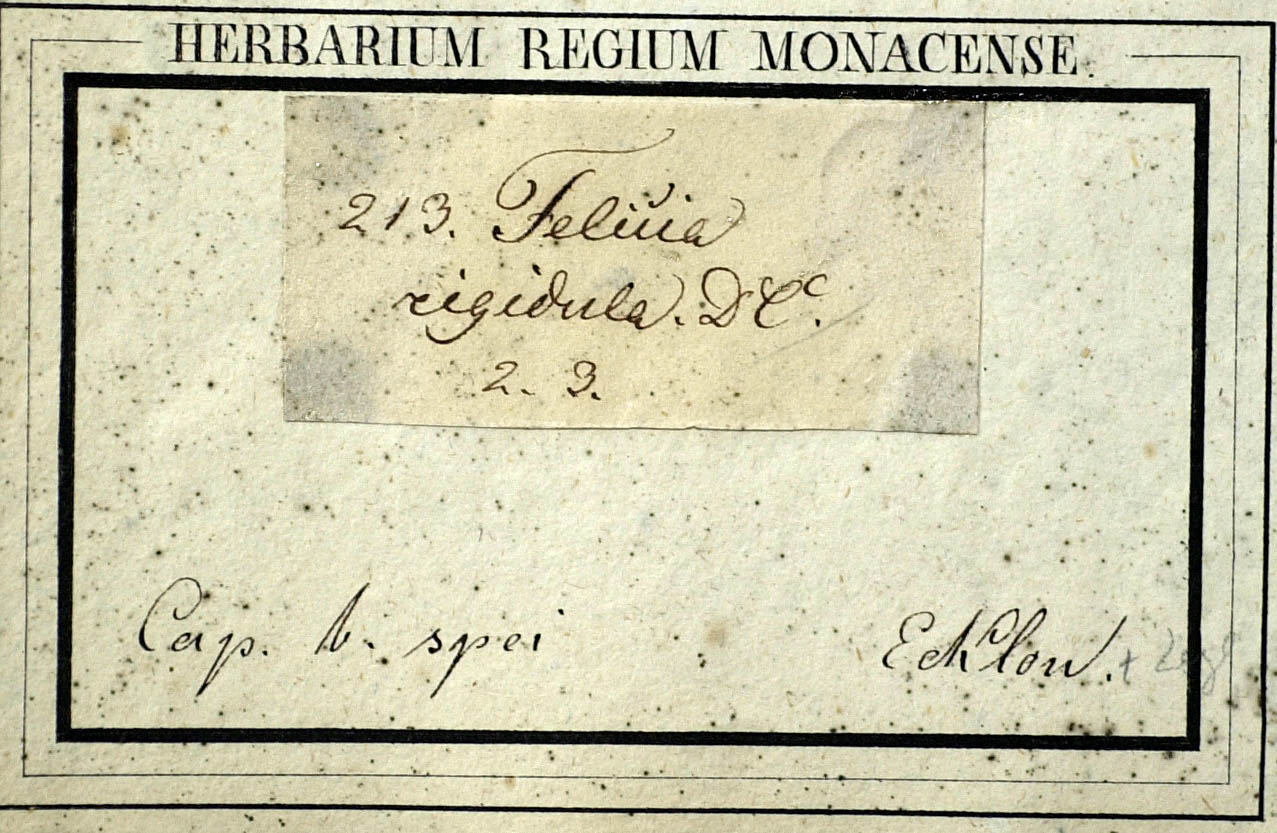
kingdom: Plantae
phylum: Tracheophyta
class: Magnoliopsida
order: Asterales
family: Asteraceae
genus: Chrysocoma
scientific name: Chrysocoma rigidula
